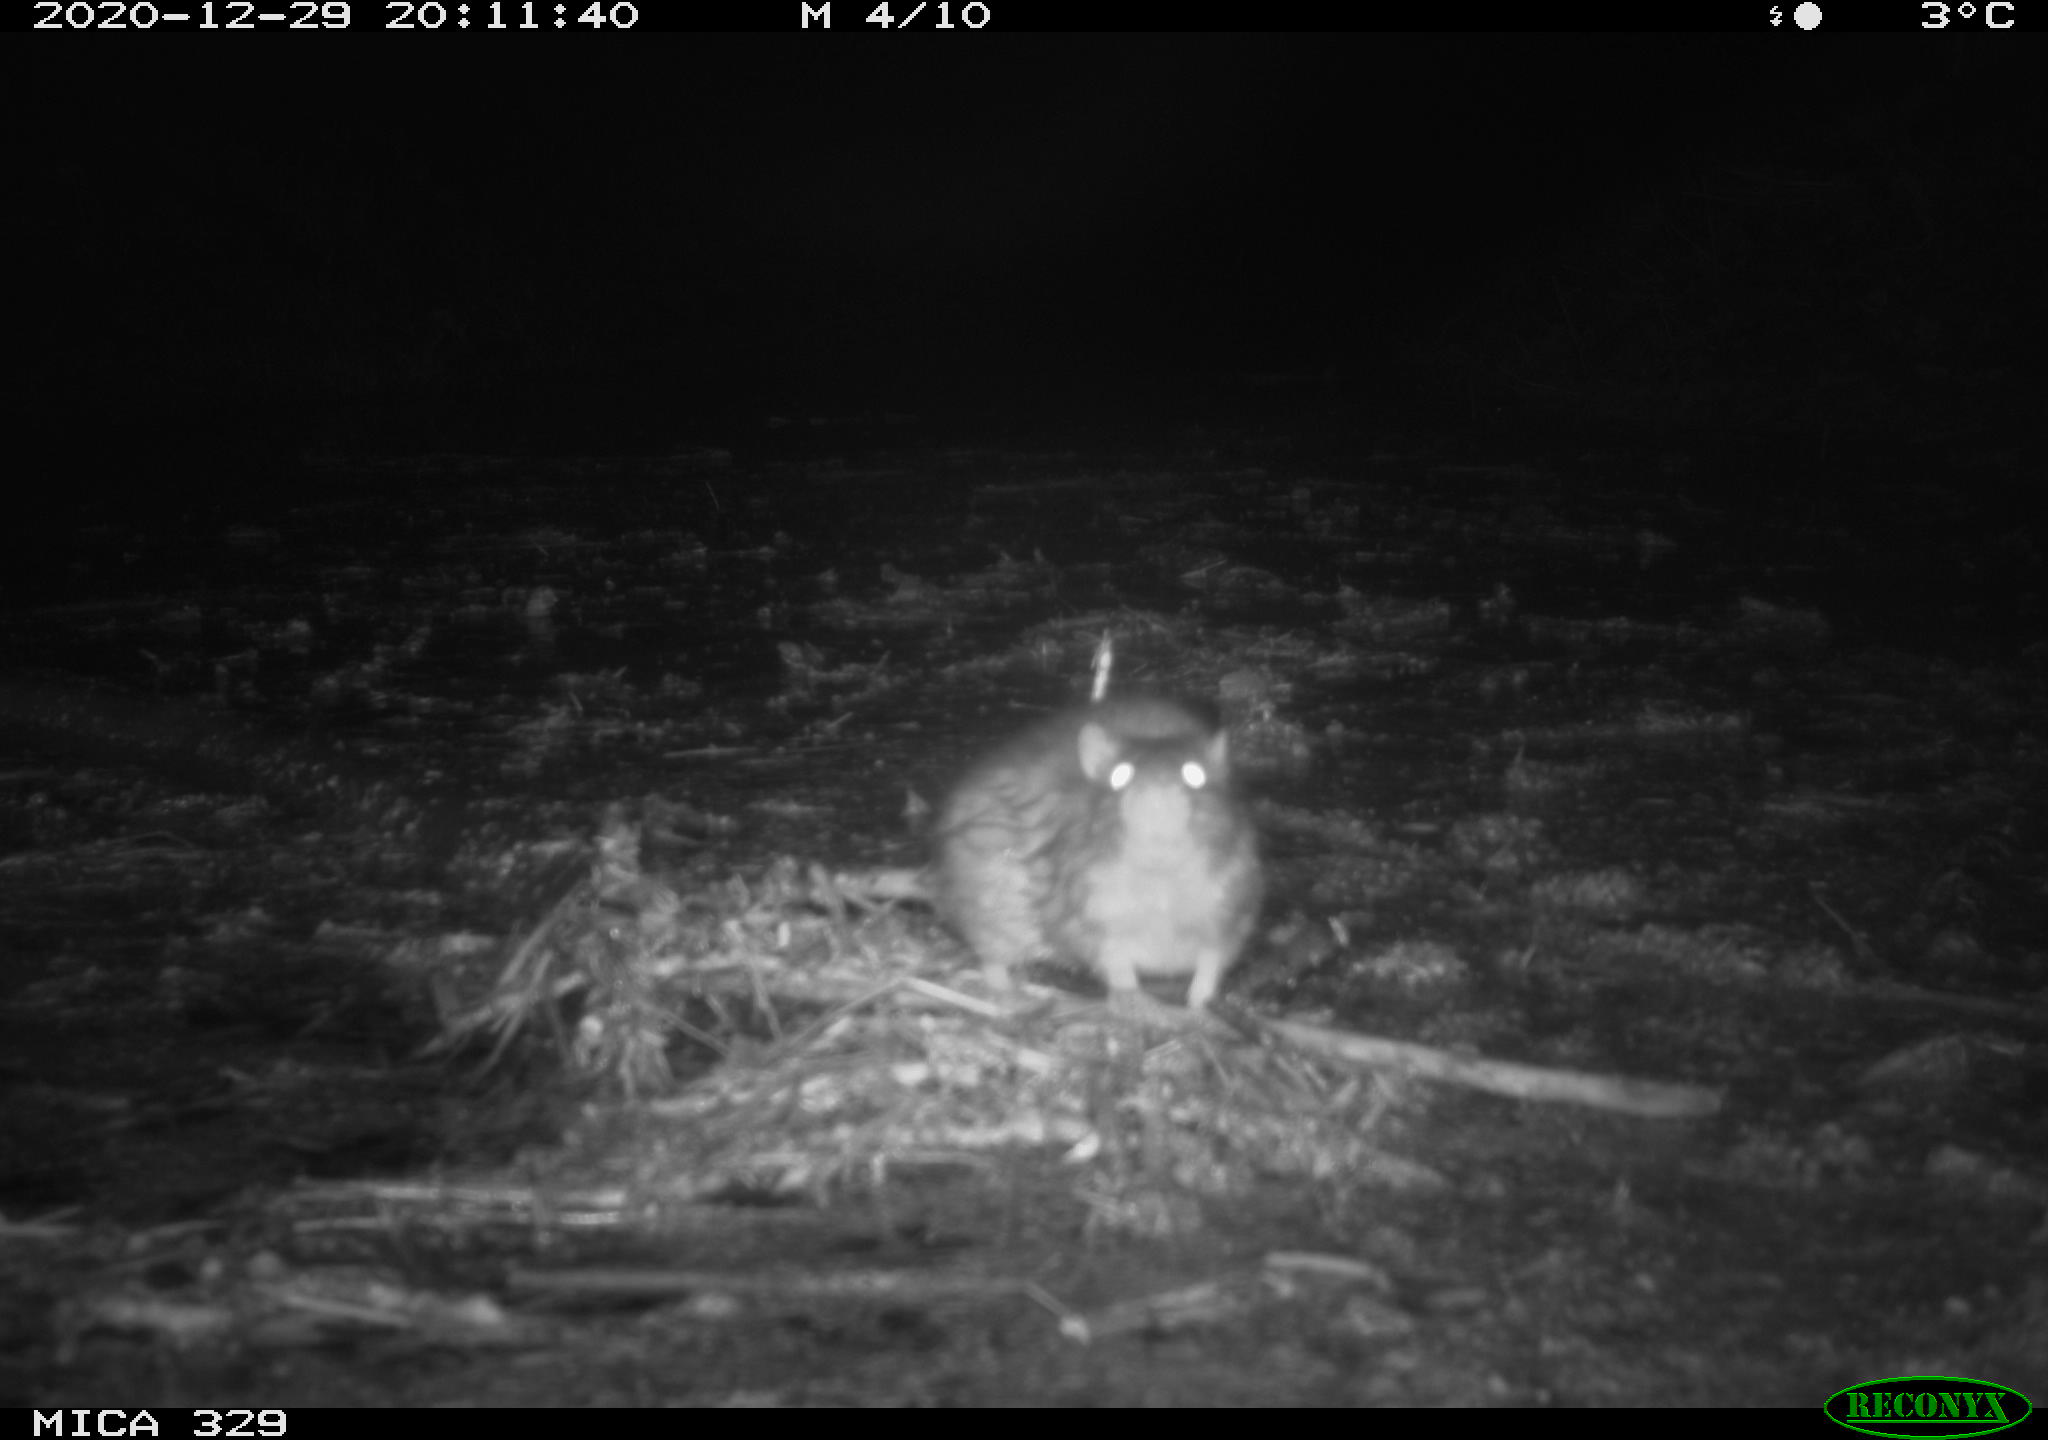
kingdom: Animalia
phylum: Chordata
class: Mammalia
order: Rodentia
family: Muridae
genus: Rattus
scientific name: Rattus norvegicus
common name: Brown rat
